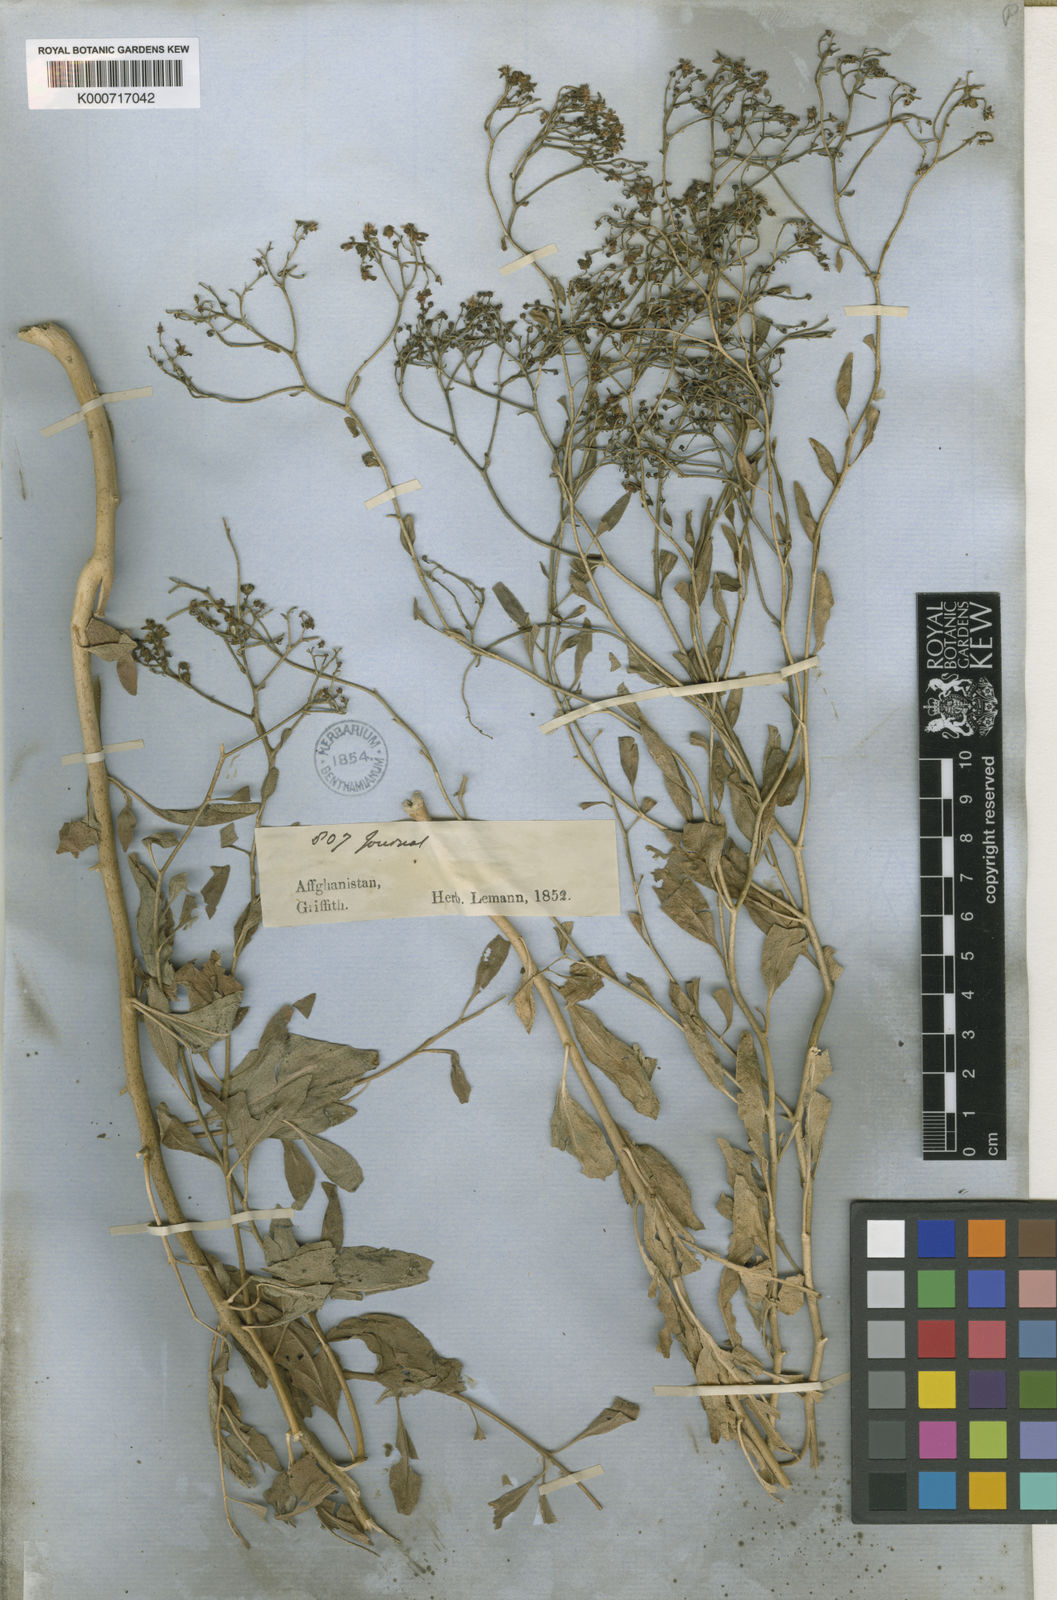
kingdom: Plantae
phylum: Tracheophyta
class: Magnoliopsida
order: Sapindales
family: Rutaceae
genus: Haplophyllum
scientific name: Haplophyllum acutifolium
